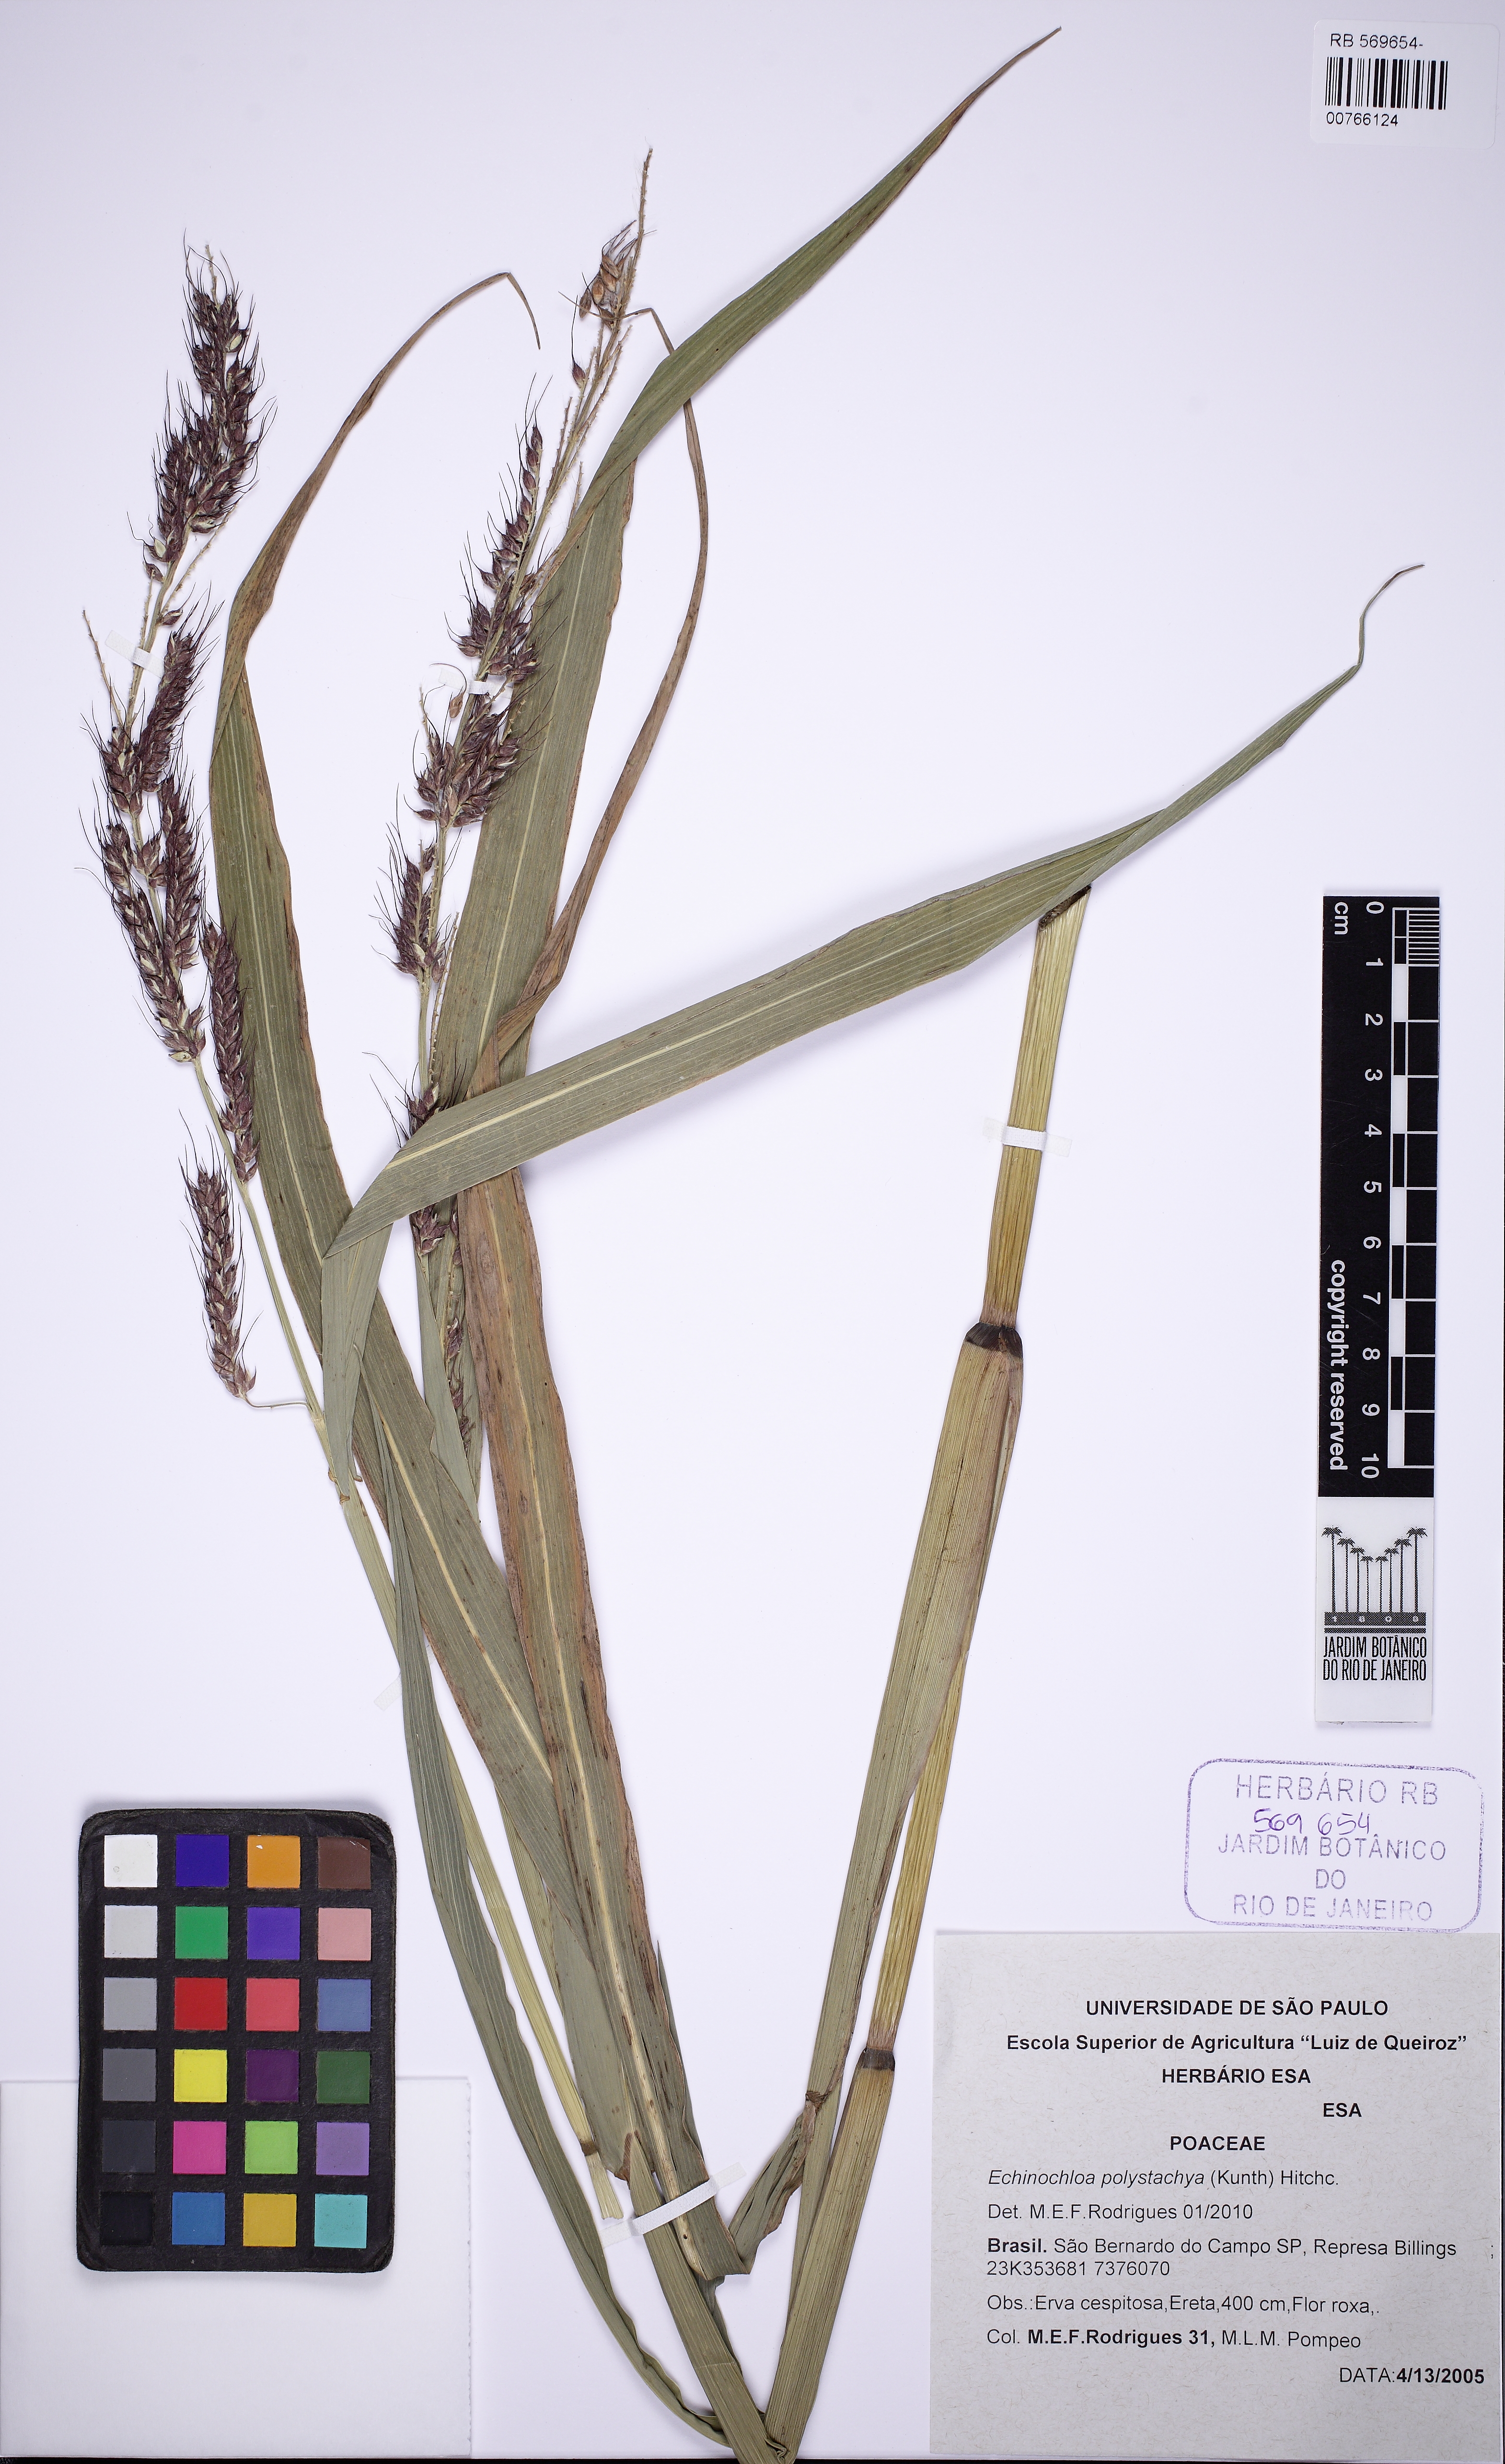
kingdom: Plantae
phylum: Tracheophyta
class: Liliopsida
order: Poales
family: Poaceae
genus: Pseudechinolaena
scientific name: Pseudechinolaena polystachya
